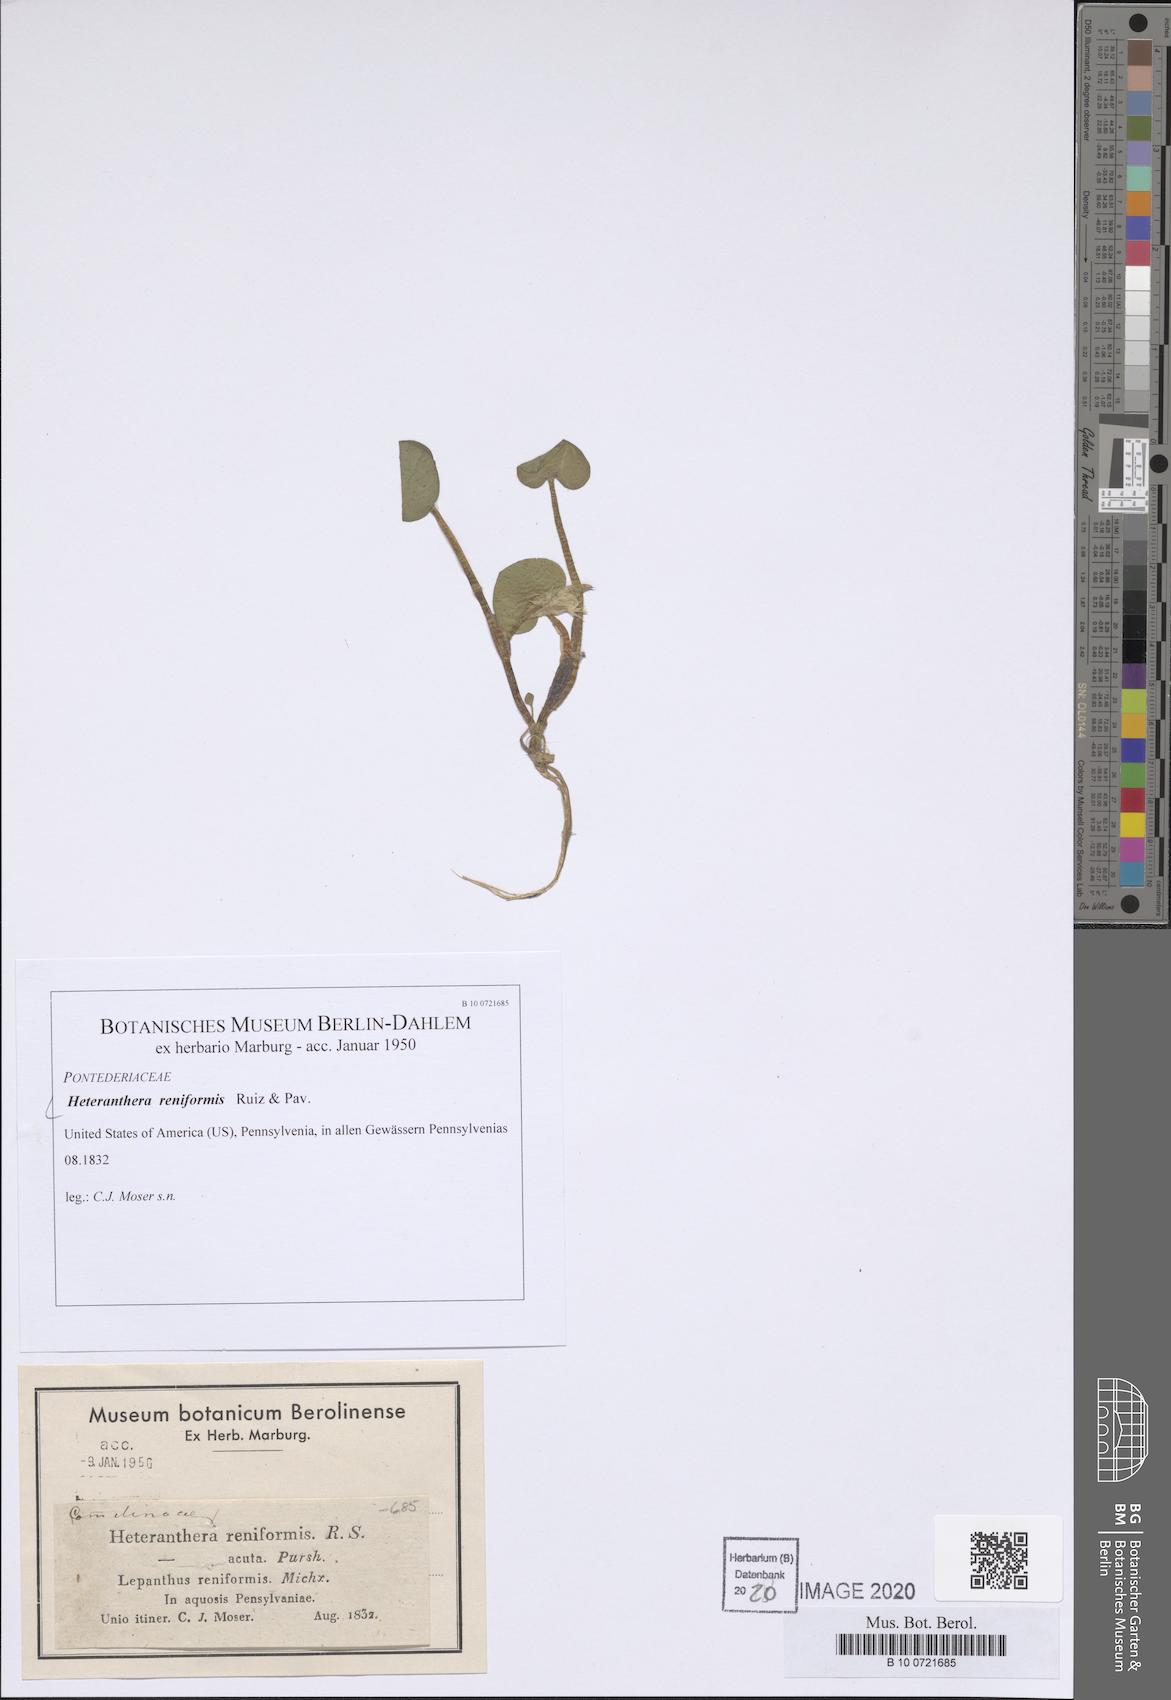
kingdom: Plantae
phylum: Tracheophyta
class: Liliopsida
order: Commelinales
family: Pontederiaceae
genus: Heteranthera
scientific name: Heteranthera reniformis
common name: Kidneyleaf mudplantain
